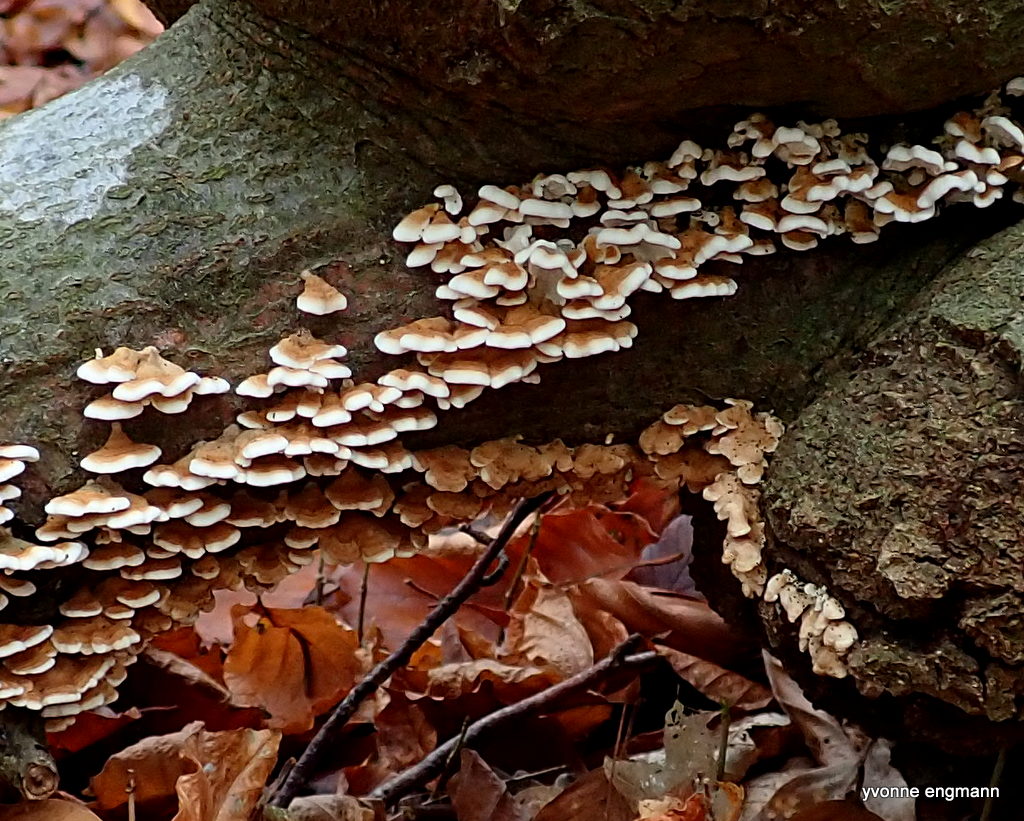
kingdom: Fungi
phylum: Basidiomycota
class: Agaricomycetes
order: Amylocorticiales
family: Amylocorticiaceae
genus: Plicaturopsis
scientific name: Plicaturopsis crispa
